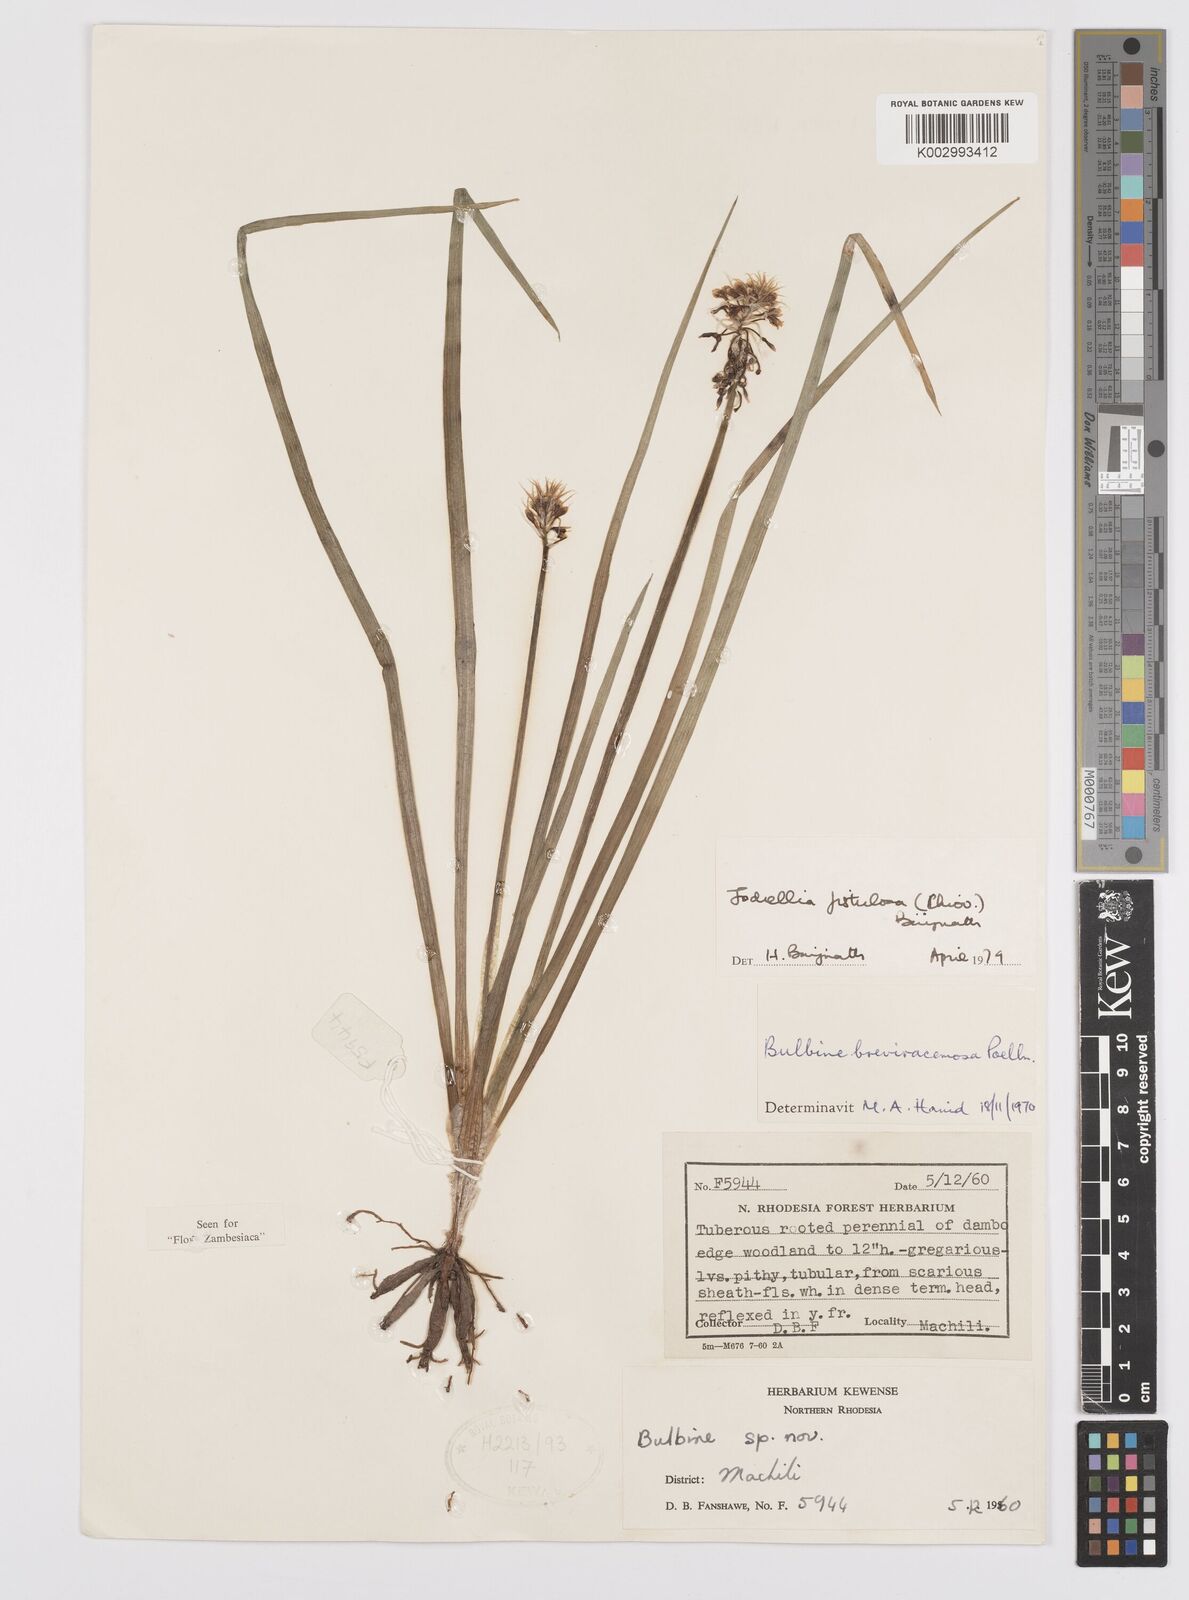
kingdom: Plantae
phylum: Tracheophyta
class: Liliopsida
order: Asparagales
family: Asphodelaceae
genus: Bulbine
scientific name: Bulbine fistulosa
